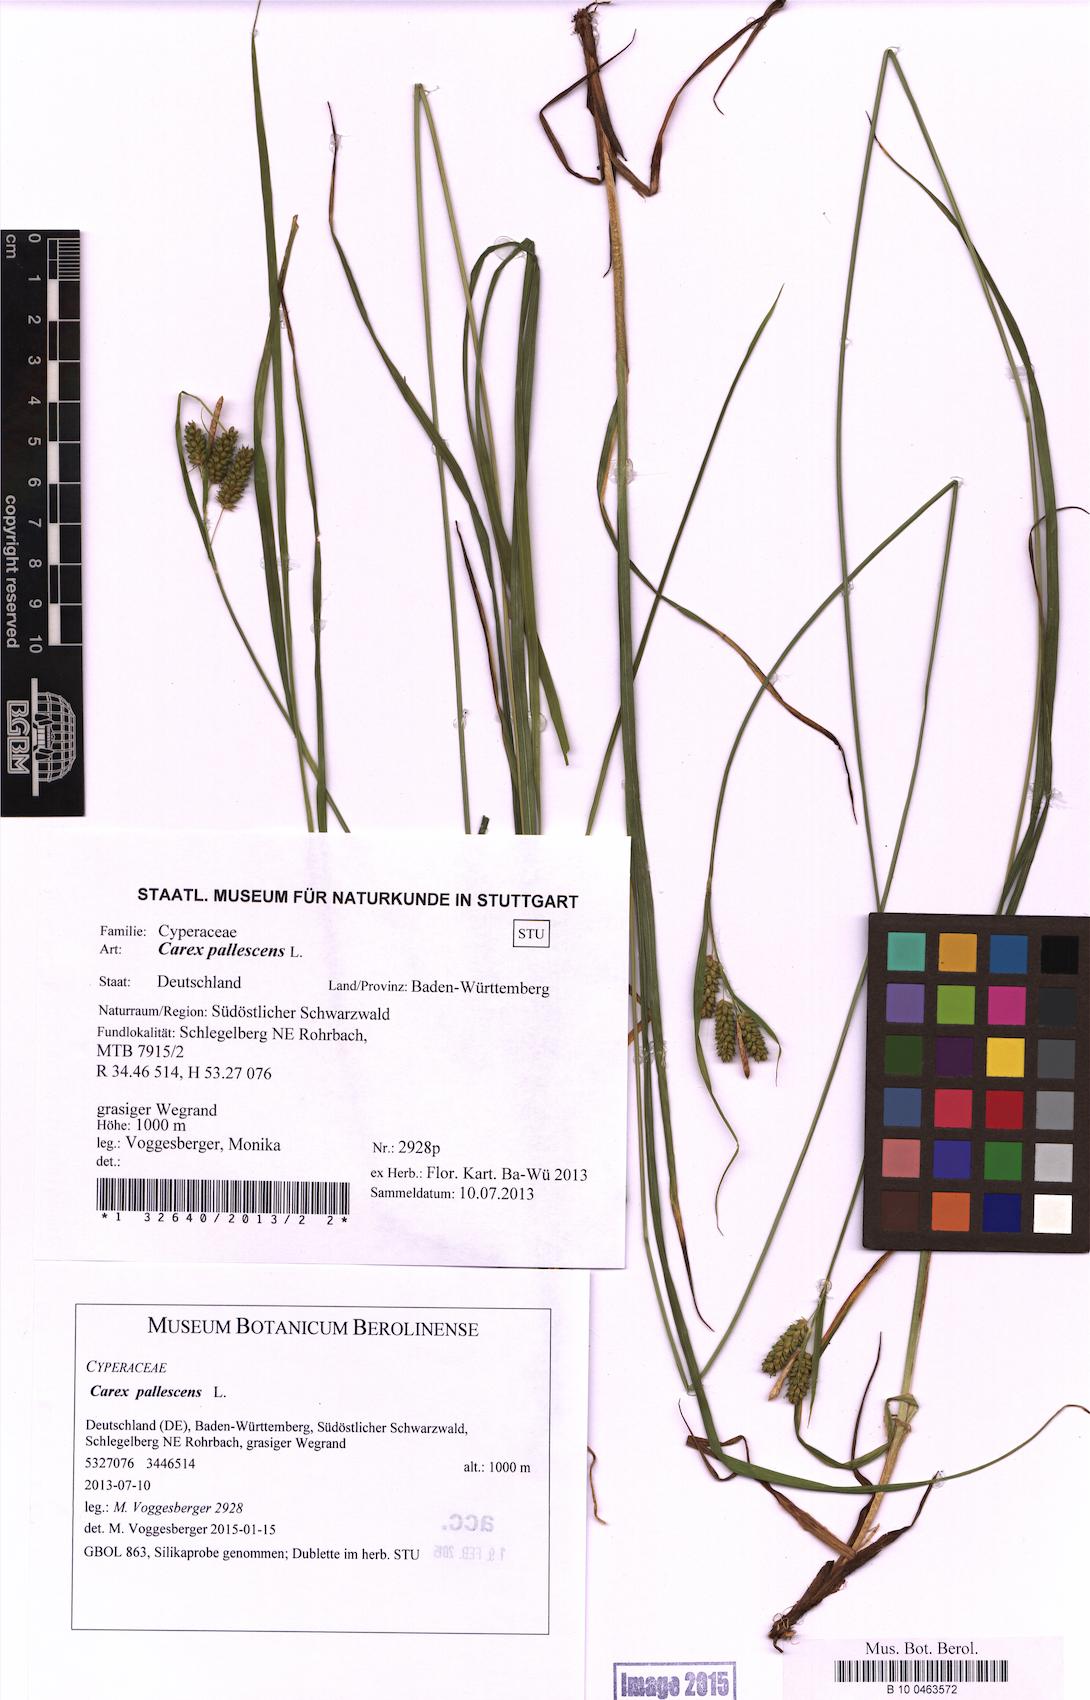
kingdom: Plantae
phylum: Tracheophyta
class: Liliopsida
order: Poales
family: Cyperaceae
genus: Carex
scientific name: Carex pallescens
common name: Pale sedge
